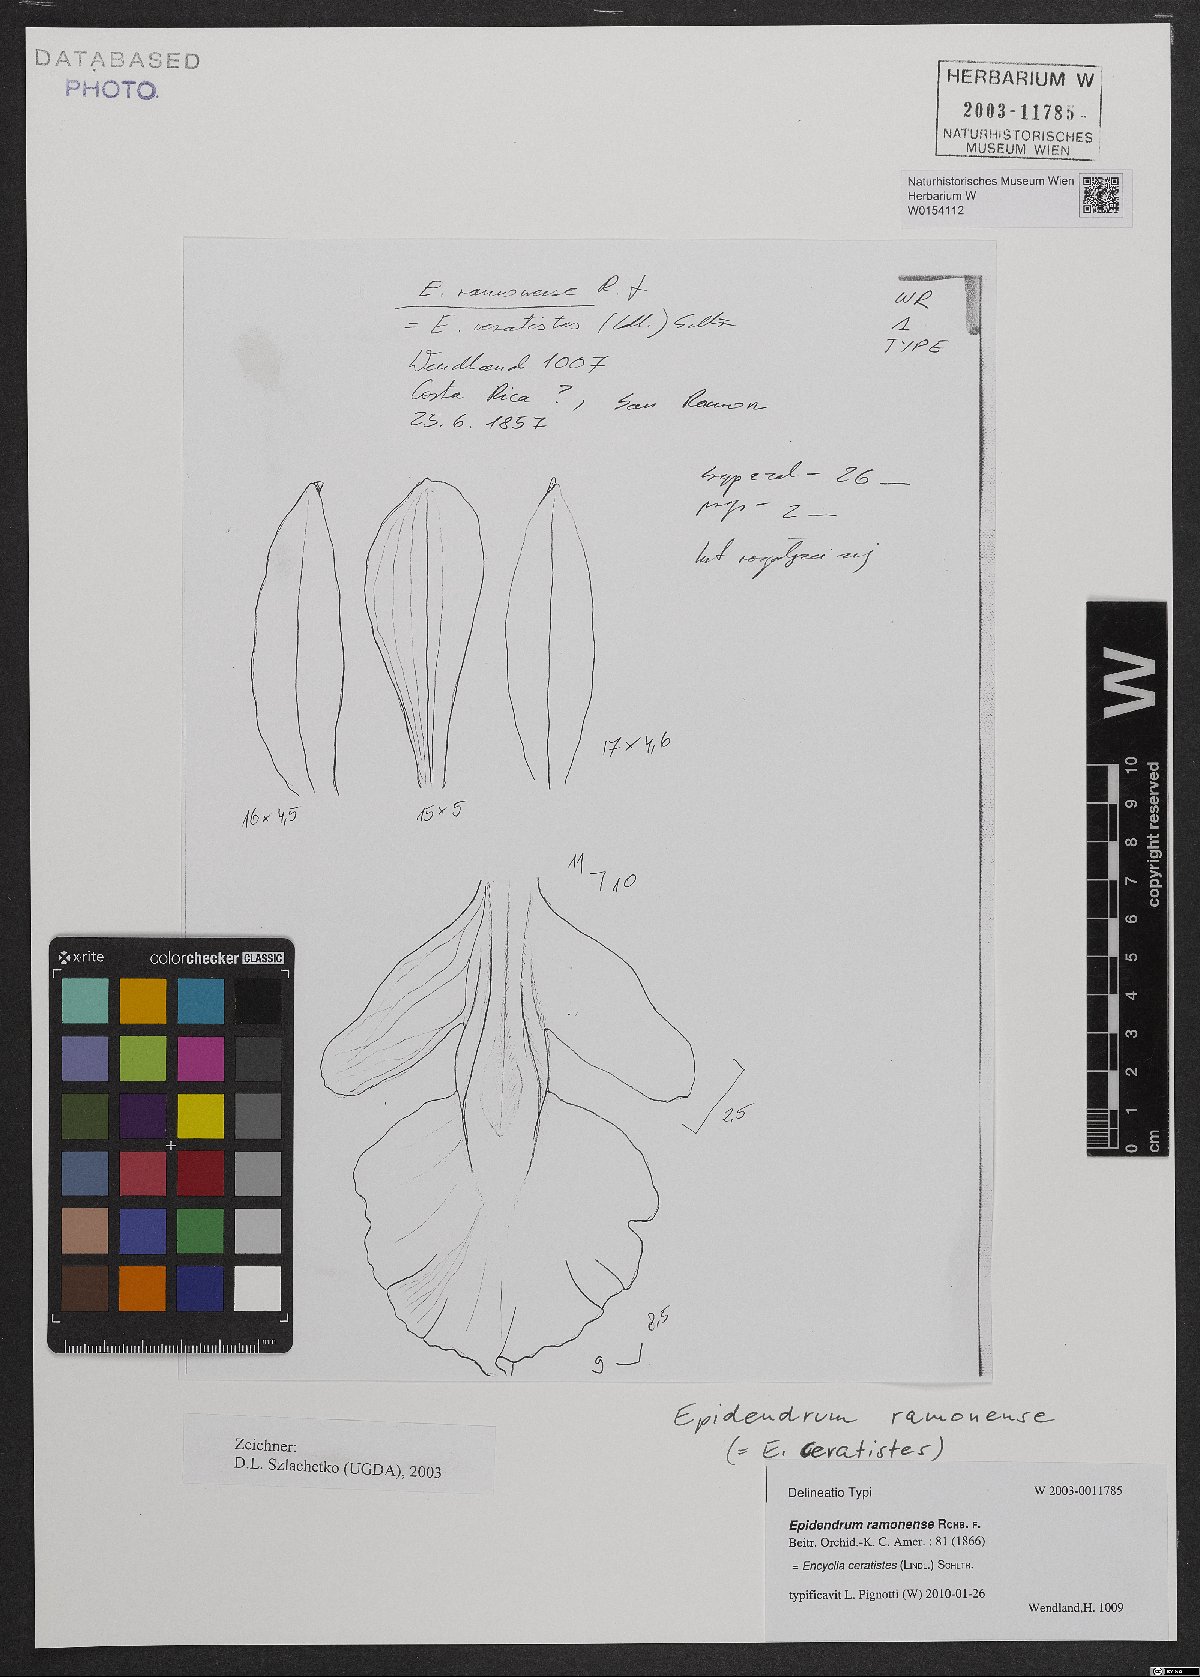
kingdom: Plantae
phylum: Tracheophyta
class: Liliopsida
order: Asparagales
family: Orchidaceae
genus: Encyclia
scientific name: Encyclia ceratistes
